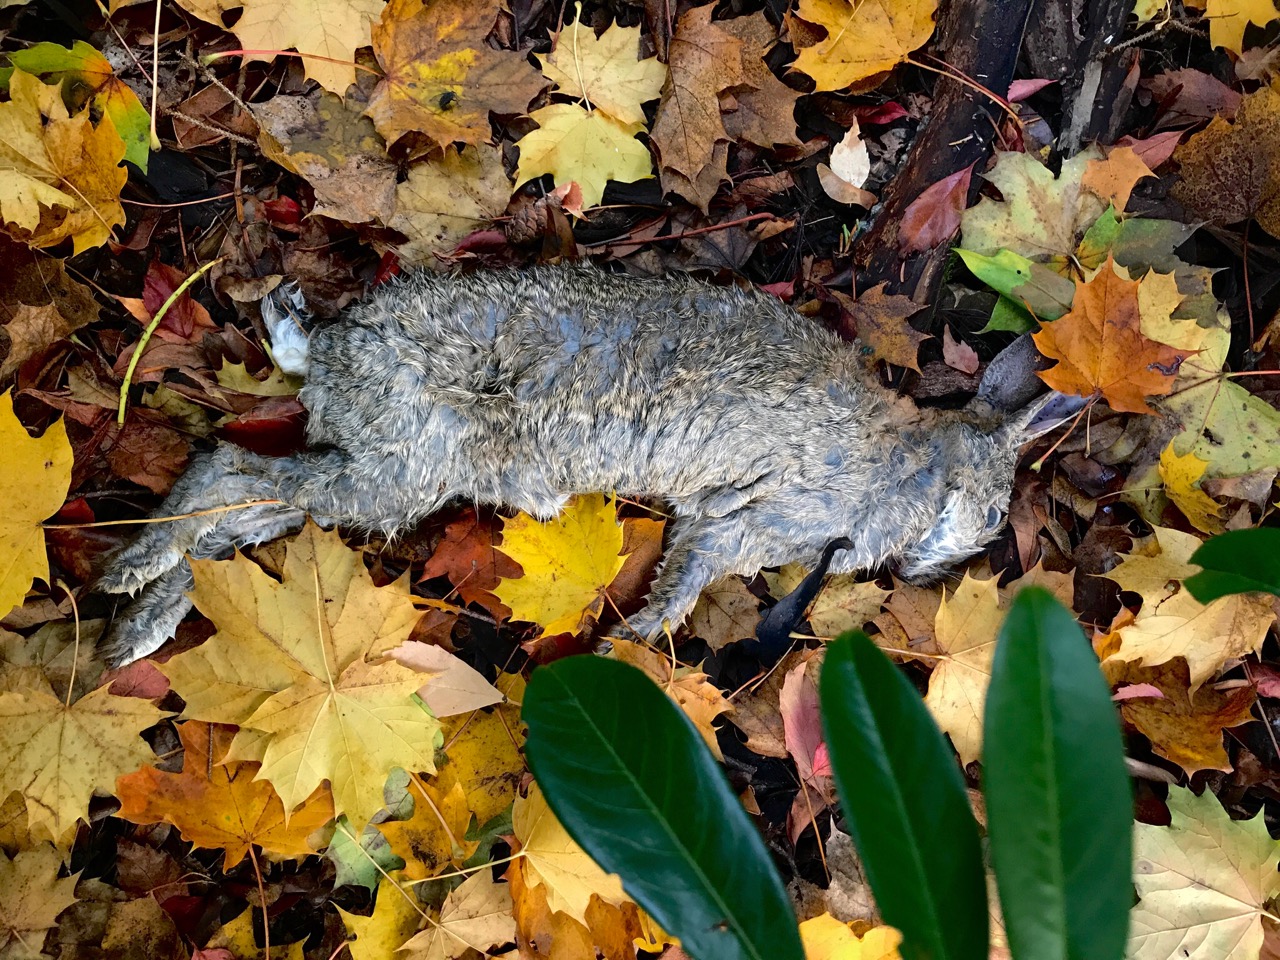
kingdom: Animalia
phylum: Chordata
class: Mammalia
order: Lagomorpha
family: Leporidae
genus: Oryctolagus
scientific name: Oryctolagus cuniculus
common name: European rabbit
